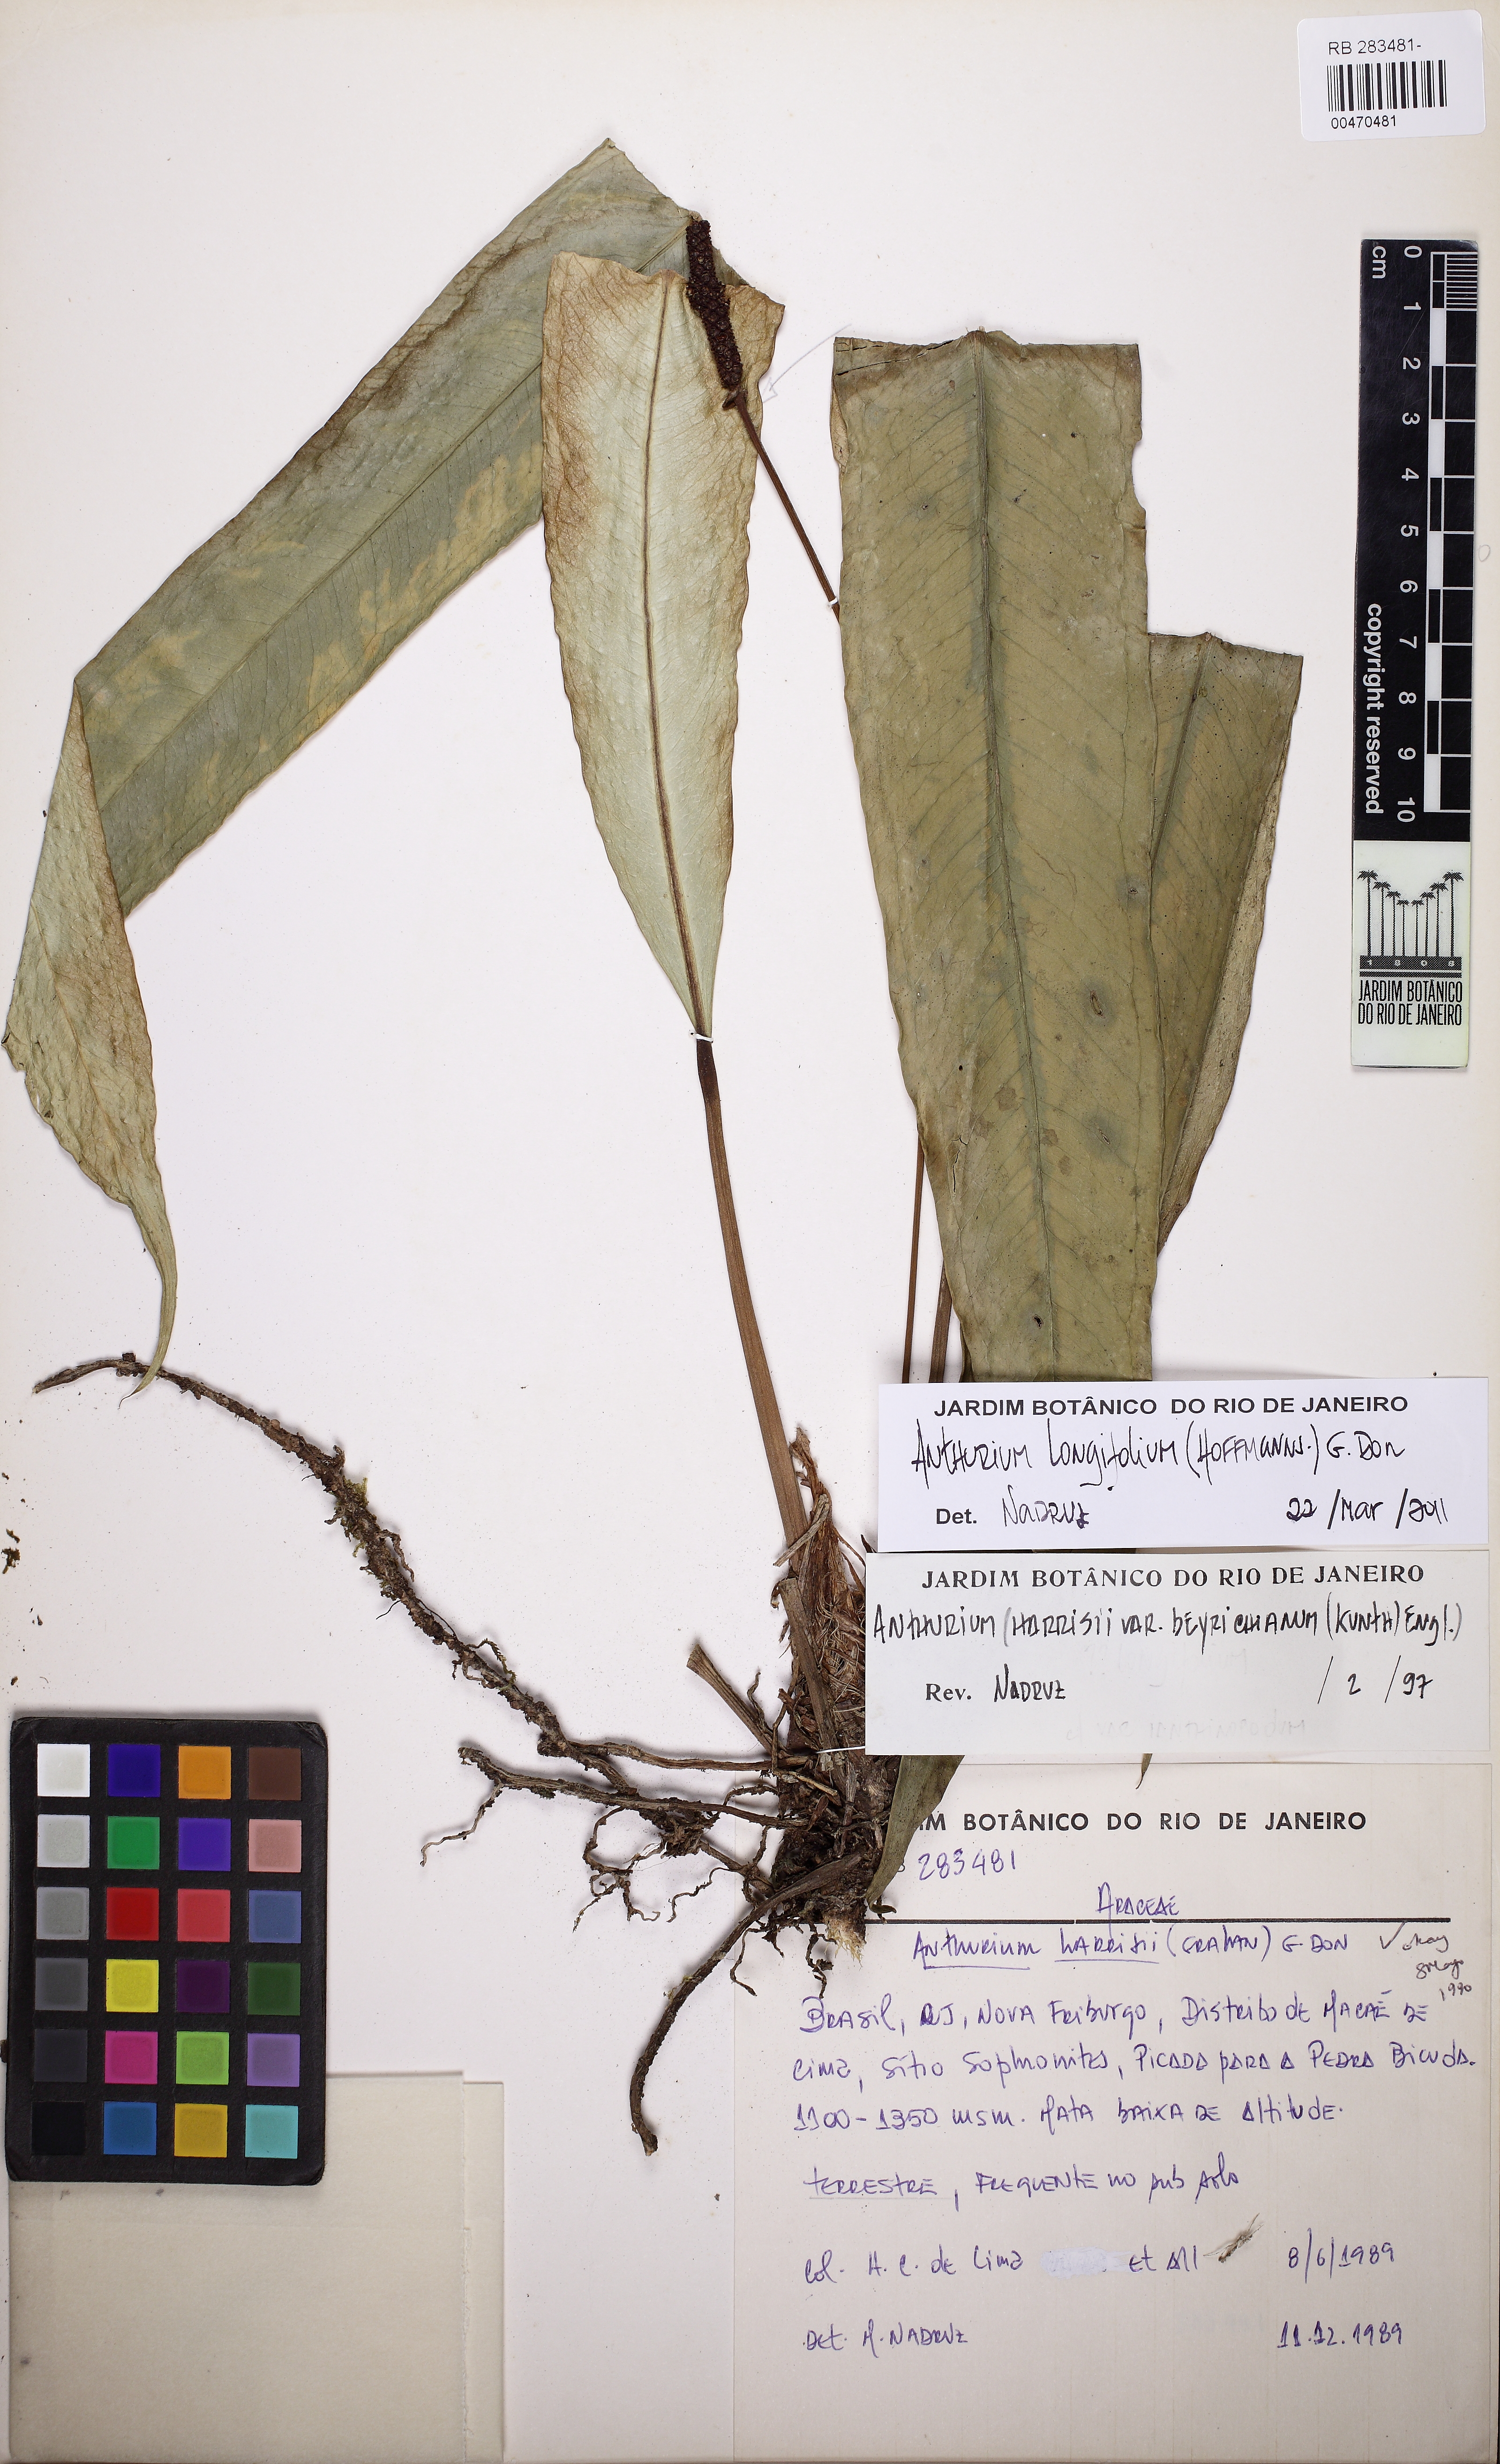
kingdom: Plantae
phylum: Tracheophyta
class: Liliopsida
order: Alismatales
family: Araceae
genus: Anthurium
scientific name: Anthurium longifolium
